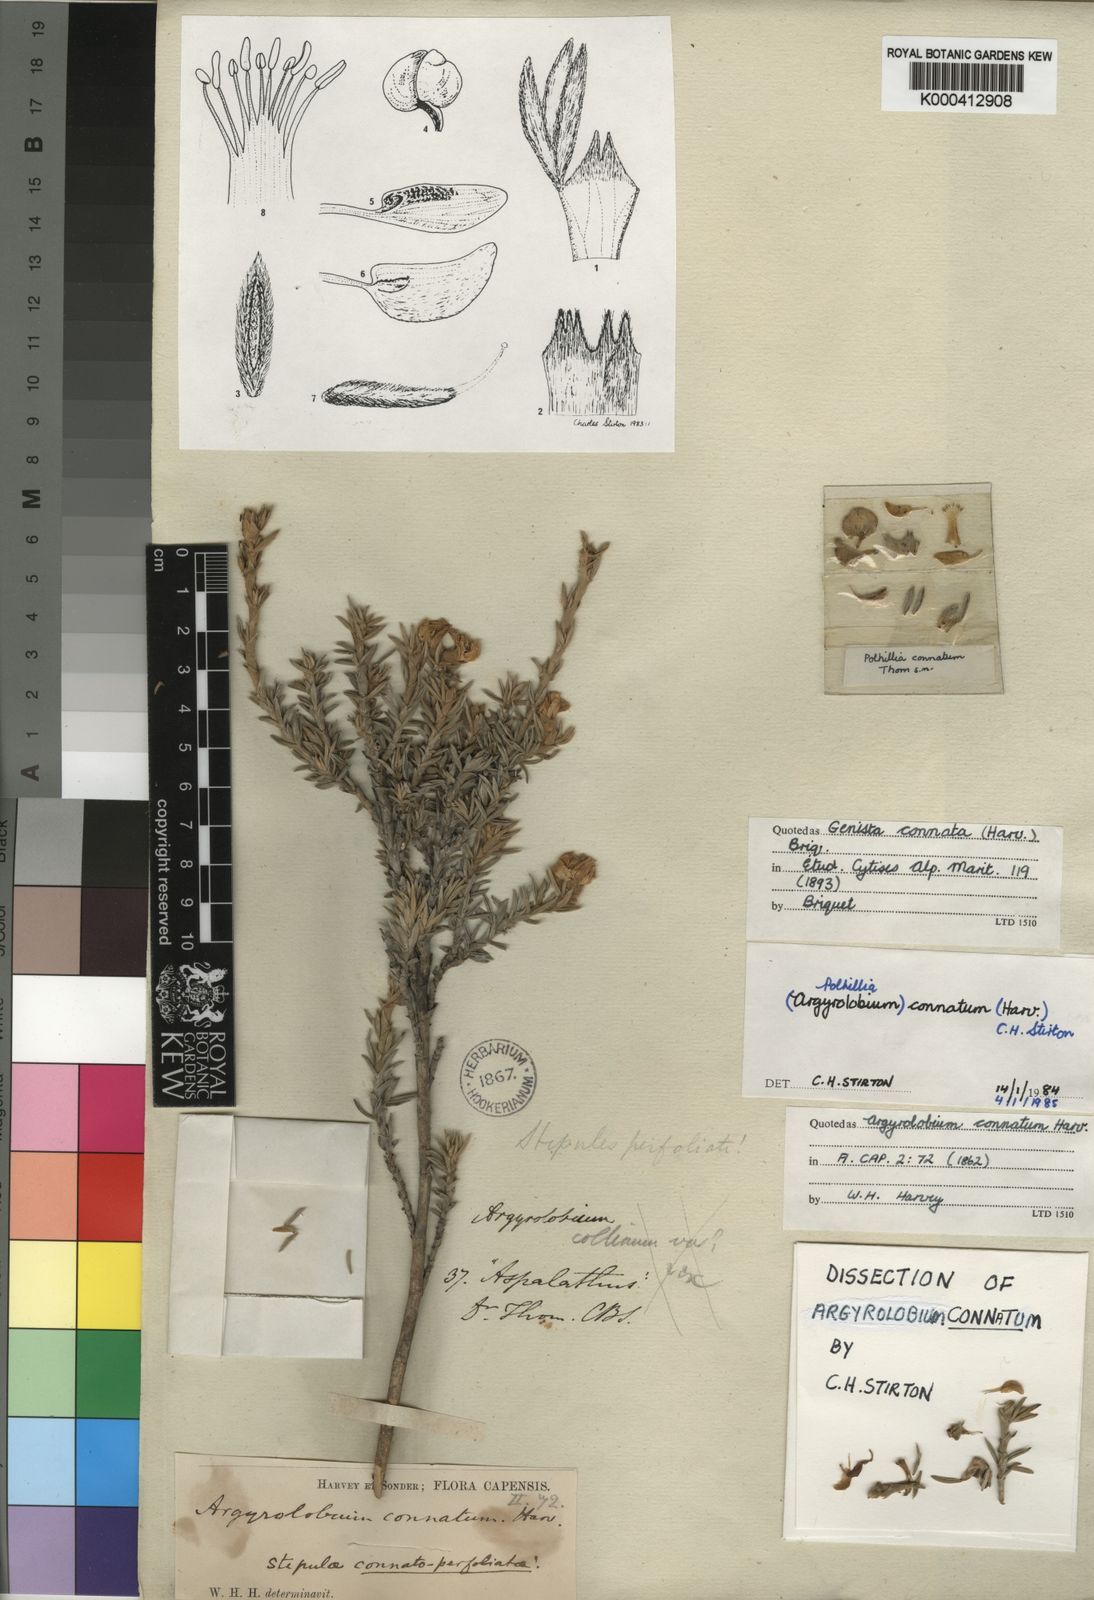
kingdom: Plantae
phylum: Tracheophyta
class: Magnoliopsida
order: Fabales
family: Fabaceae
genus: Polhillia
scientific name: Polhillia connata
